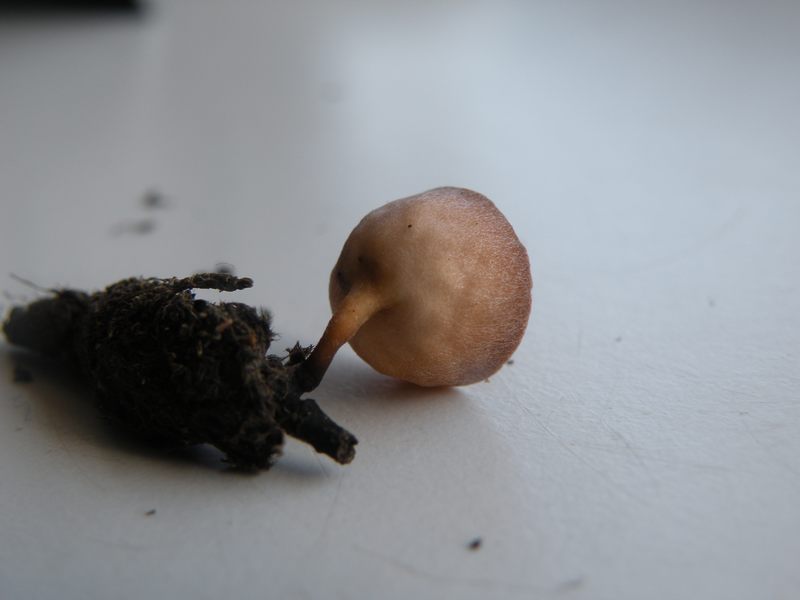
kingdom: Fungi
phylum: Ascomycota
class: Leotiomycetes
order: Helotiales
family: Sclerotiniaceae
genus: Ciboria
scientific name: Ciboria caucus
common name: rakle-knoldskive
